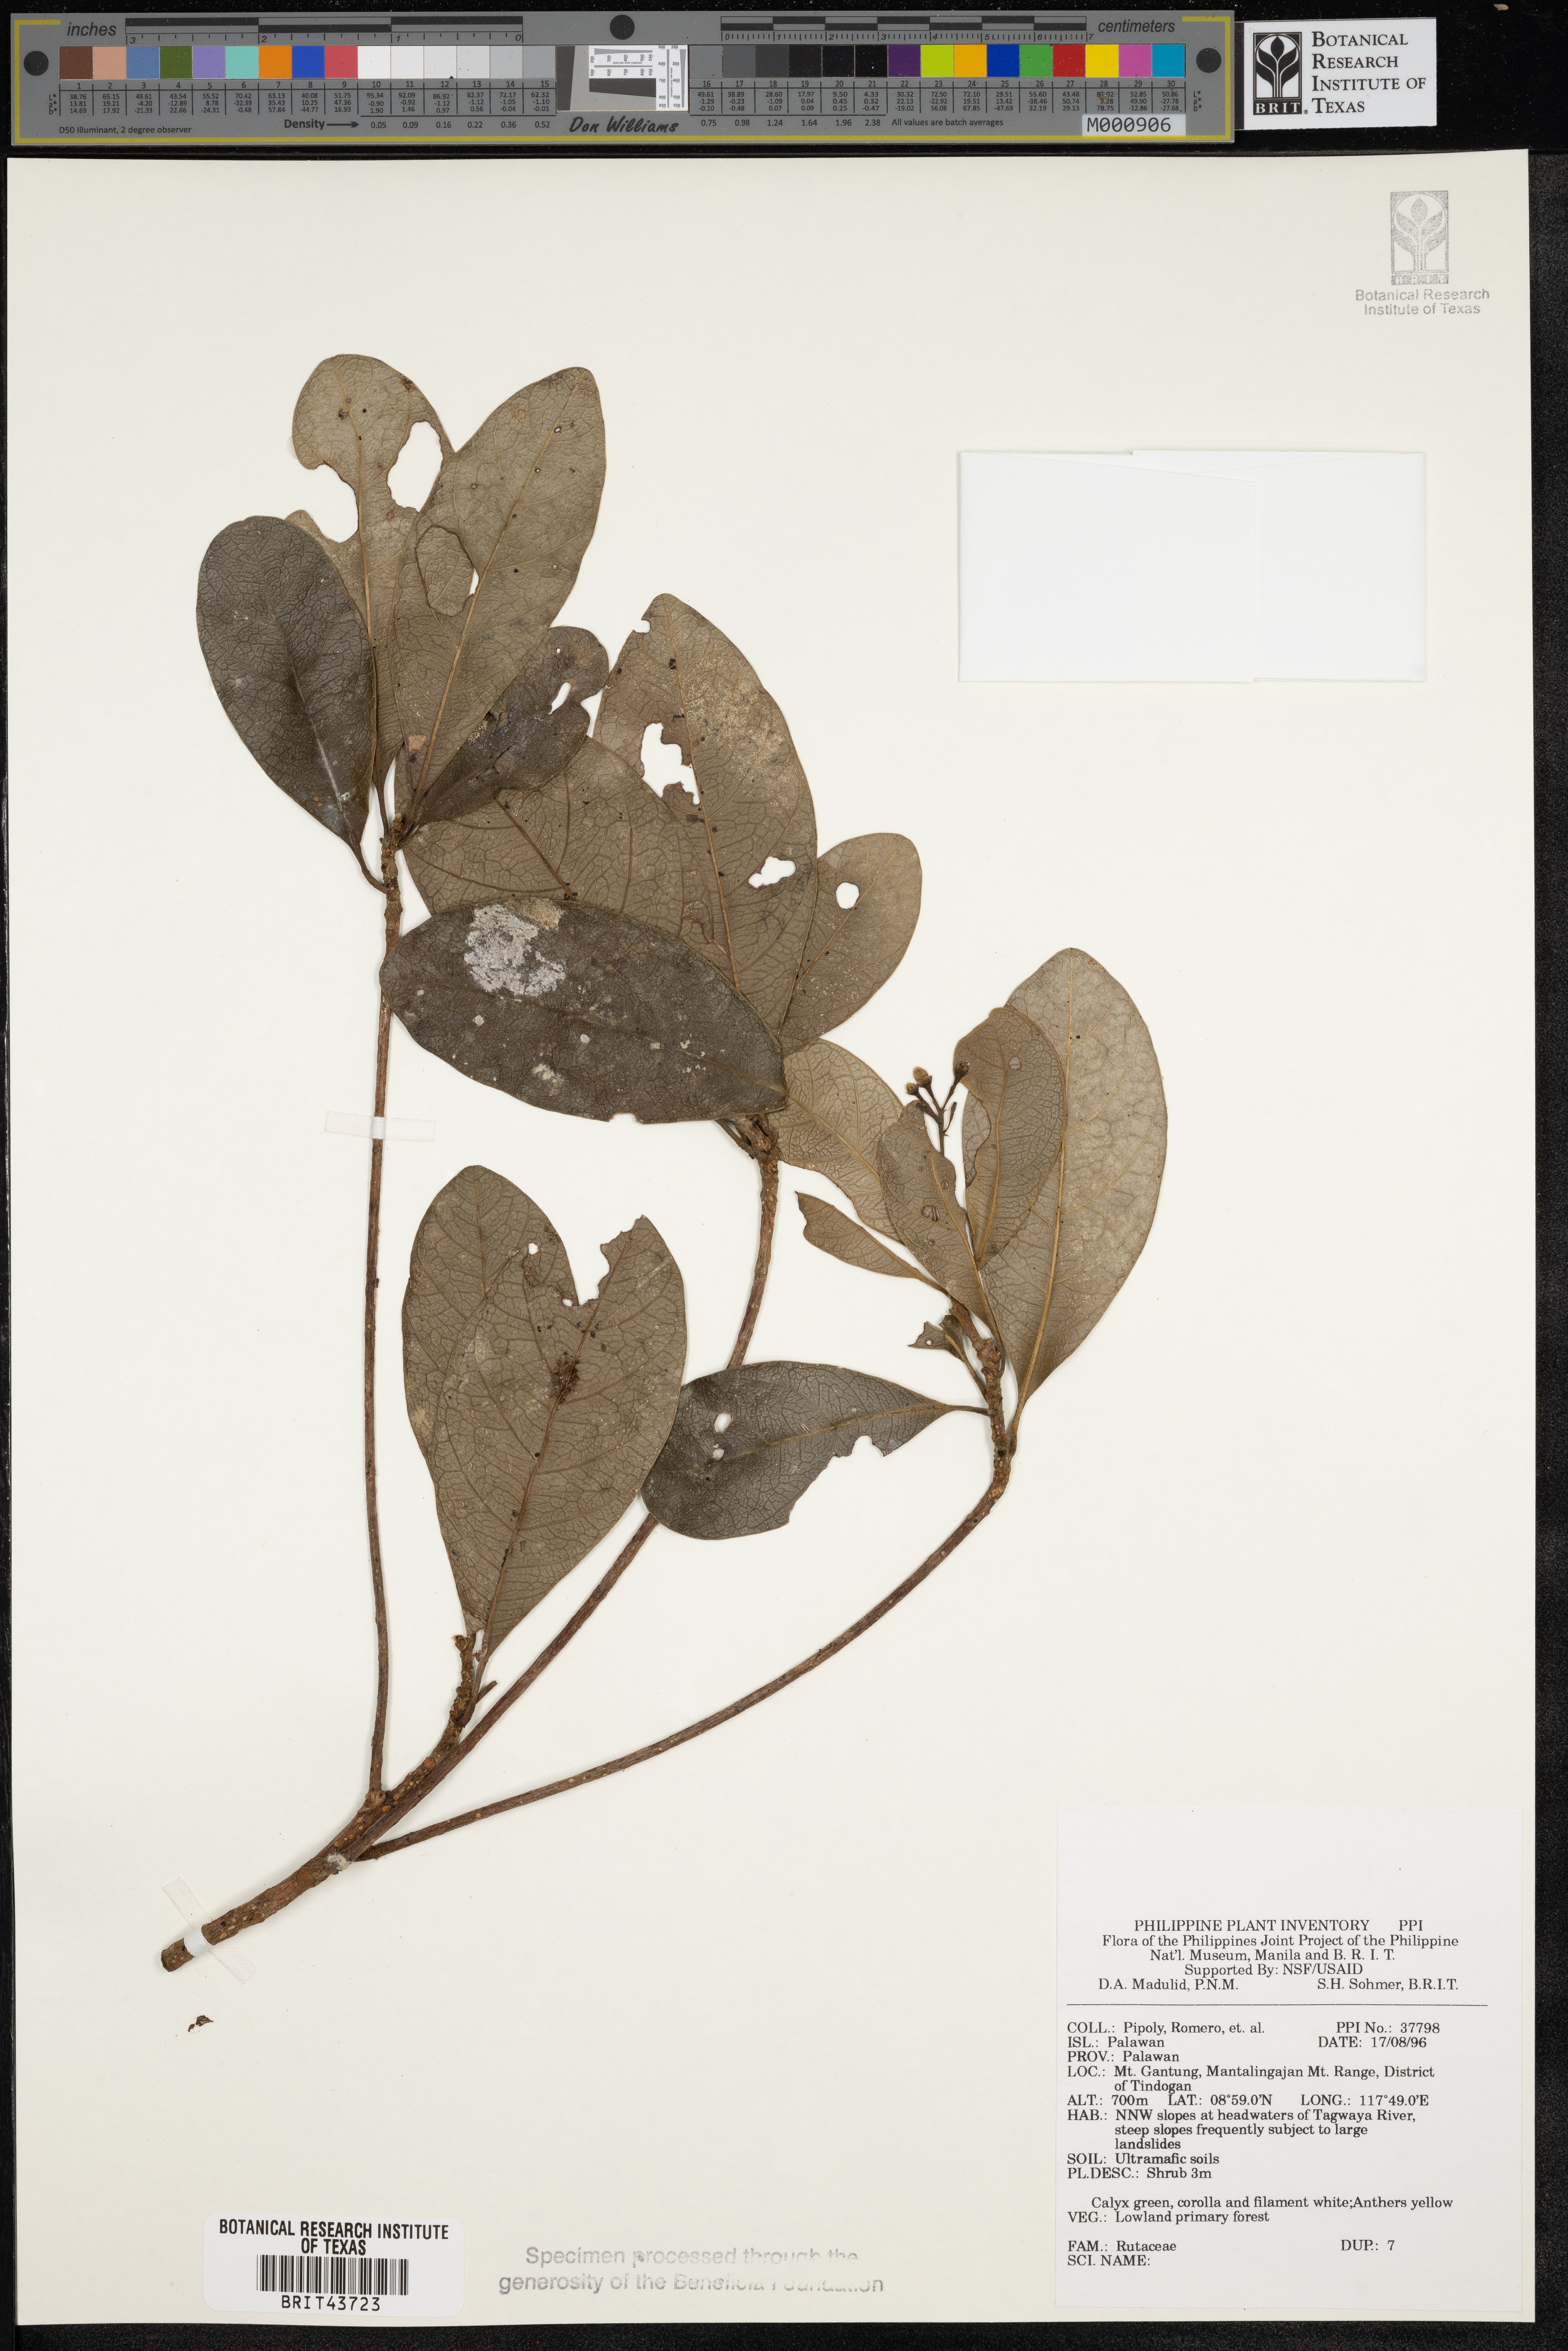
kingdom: Plantae
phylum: Tracheophyta
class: Magnoliopsida
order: Sapindales
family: Rutaceae
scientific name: Rutaceae
